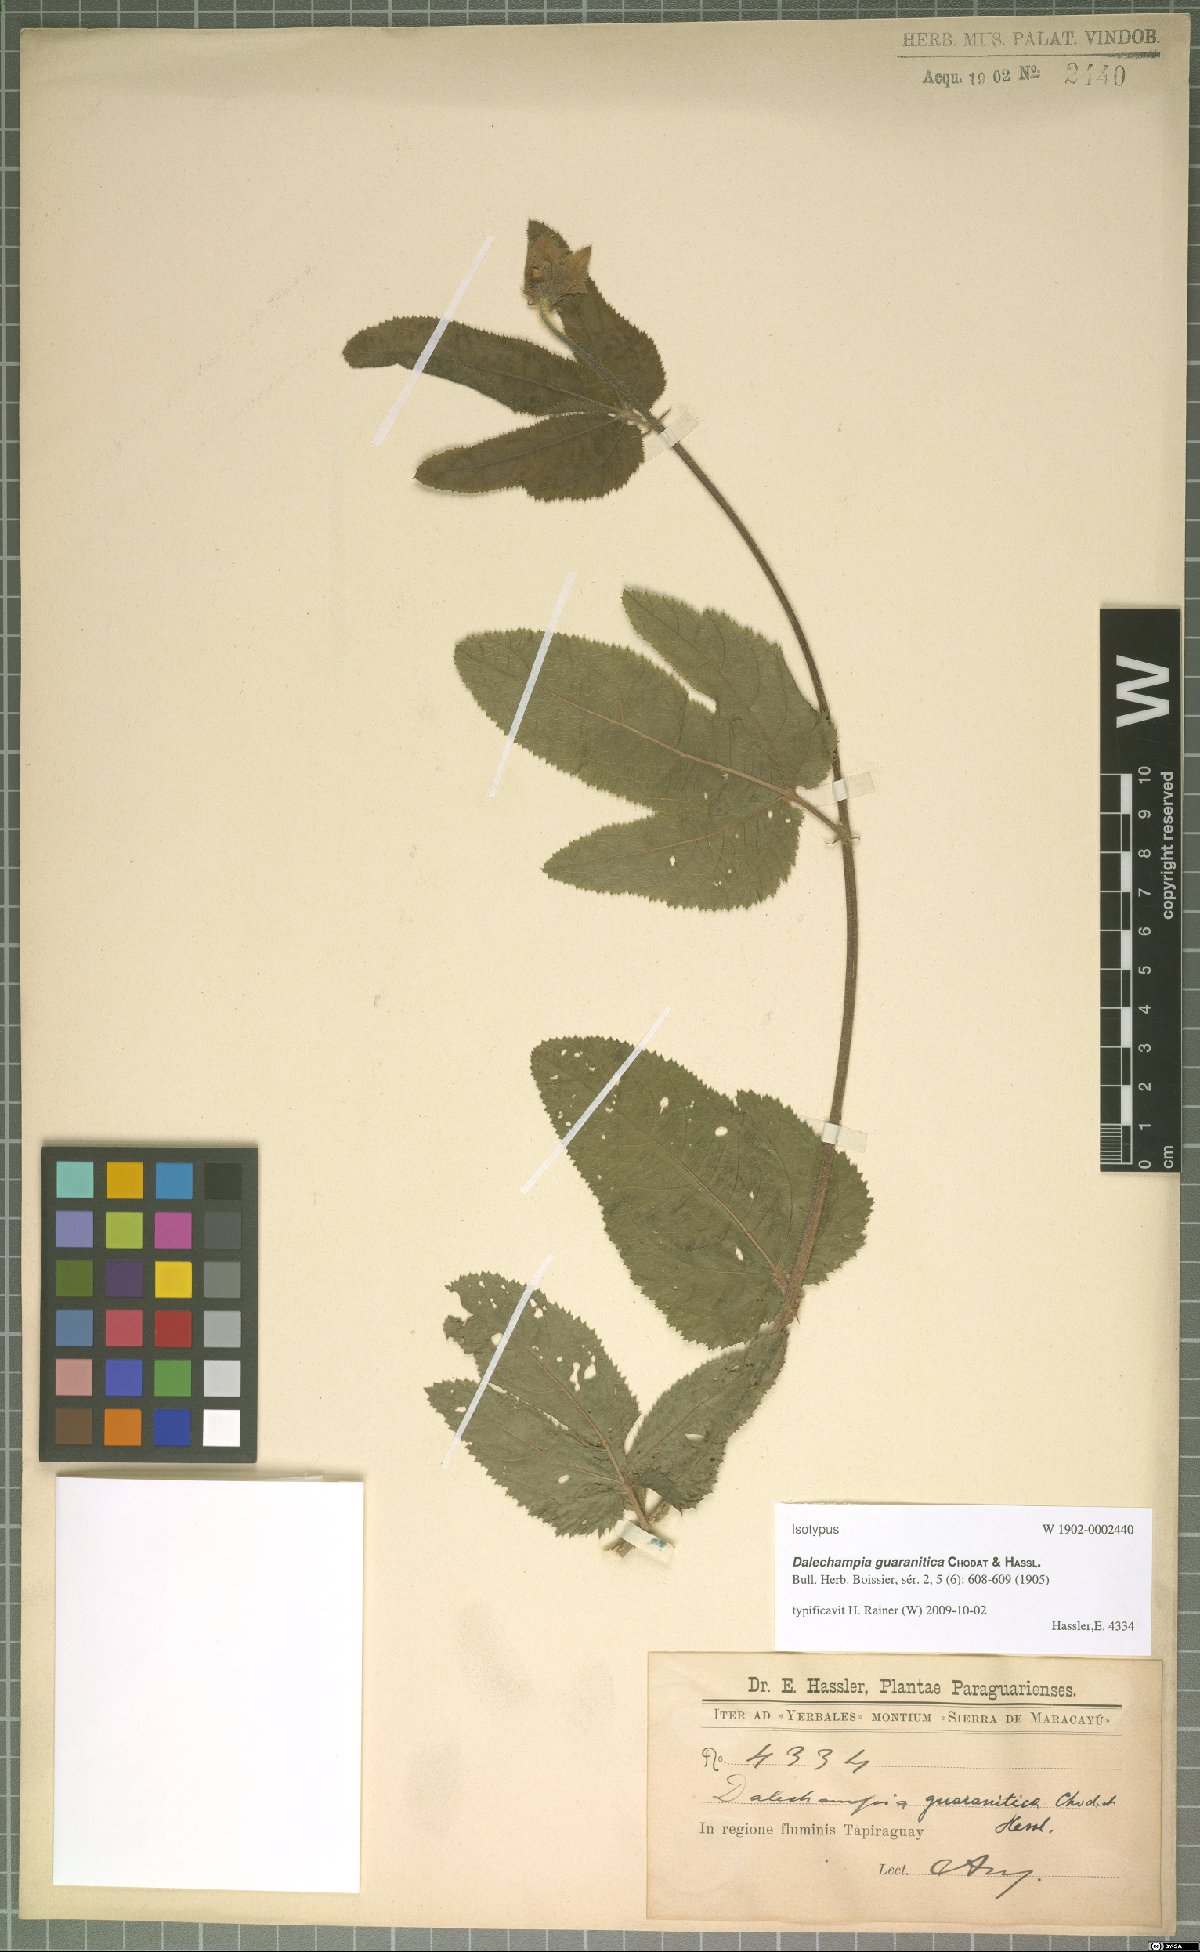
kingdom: Plantae
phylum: Tracheophyta
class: Magnoliopsida
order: Malpighiales
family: Euphorbiaceae
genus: Dalechampia
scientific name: Dalechampia guaranitica
